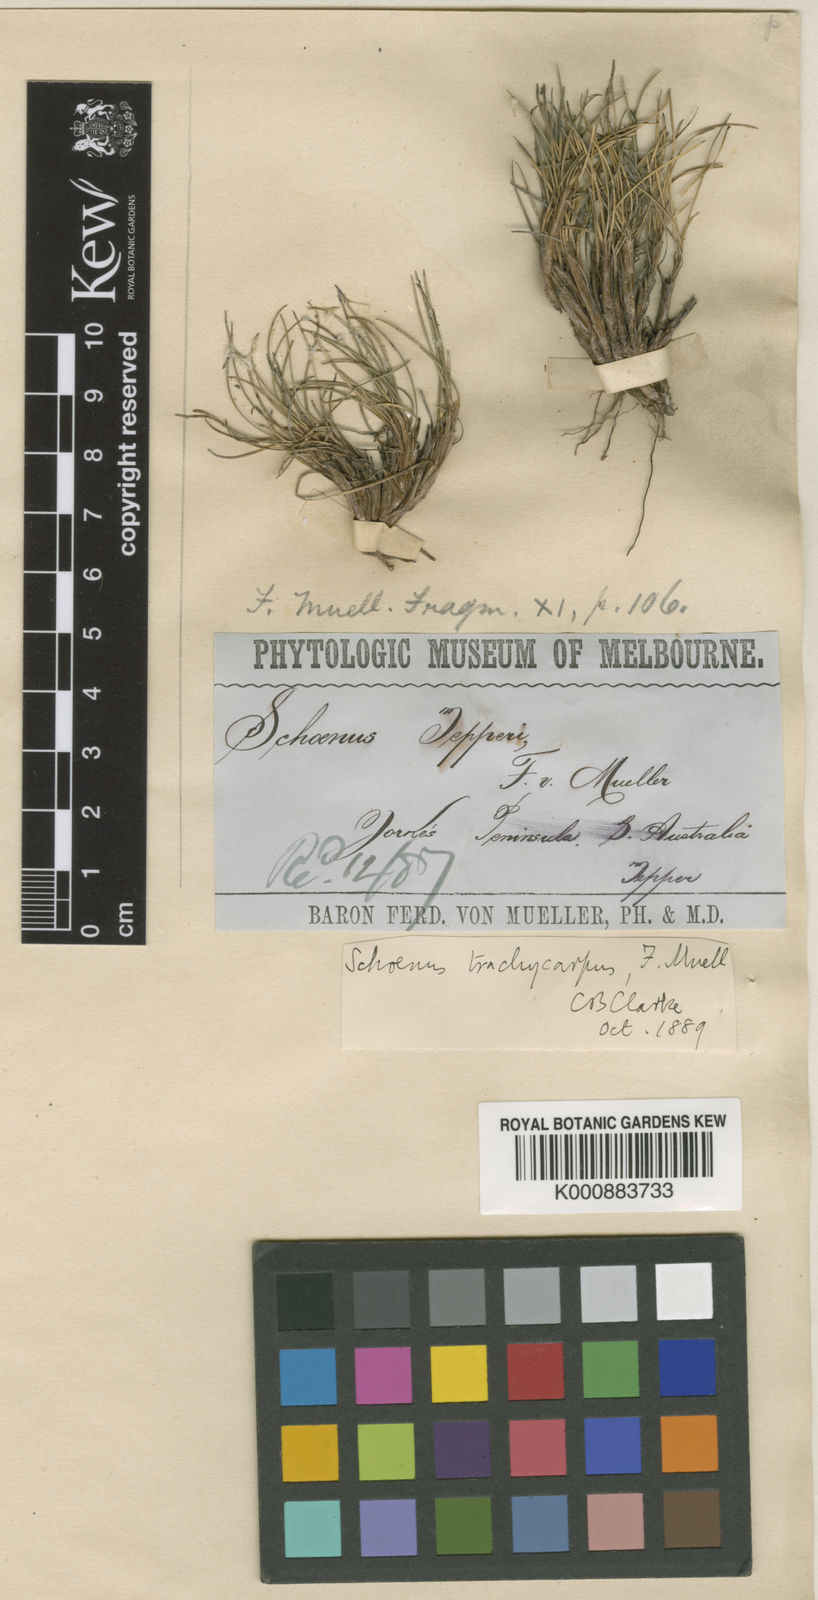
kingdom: Plantae
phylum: Tracheophyta
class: Liliopsida
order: Poales
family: Cyperaceae
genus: Schoenus
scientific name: Schoenus trachycarpus
